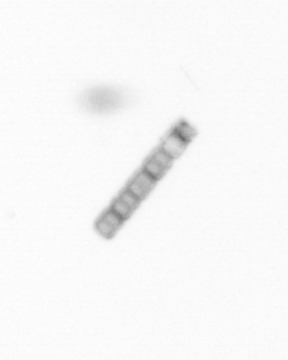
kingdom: Chromista
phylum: Ochrophyta
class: Bacillariophyceae
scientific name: Bacillariophyceae
